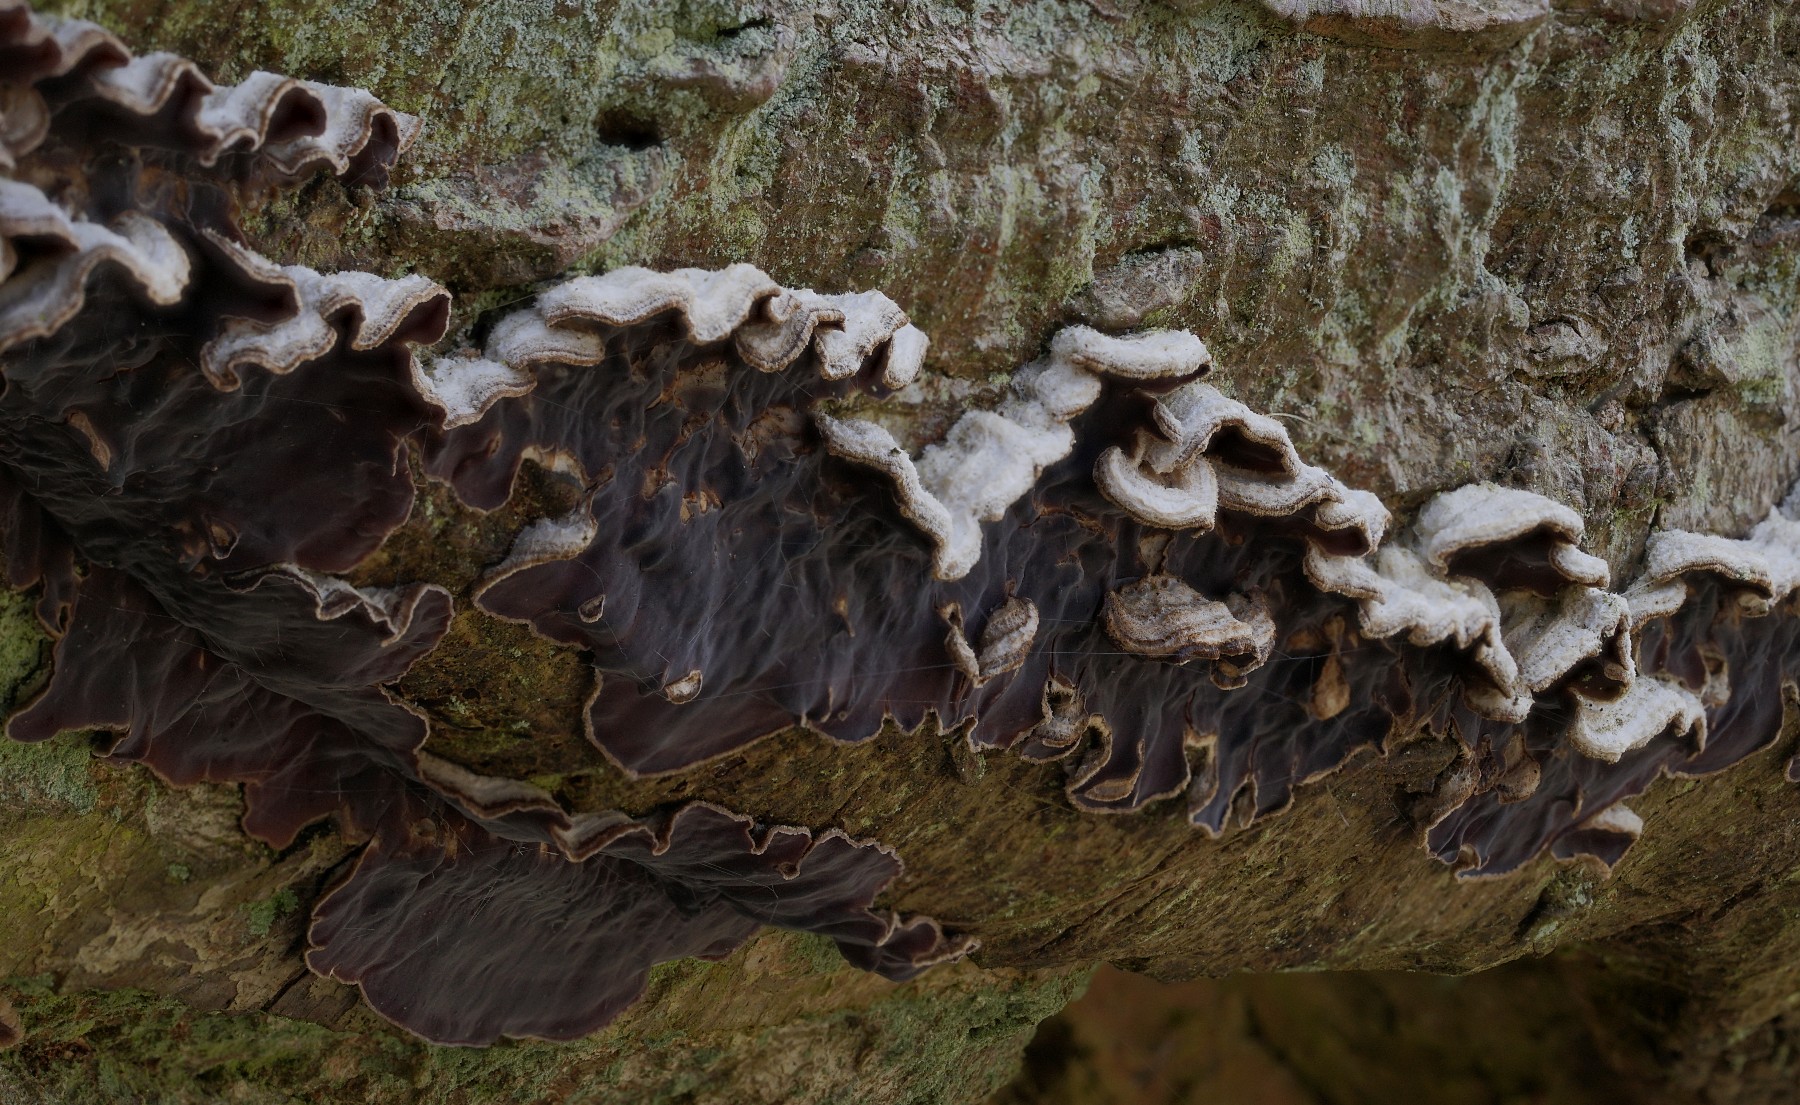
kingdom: Fungi
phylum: Basidiomycota
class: Agaricomycetes
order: Agaricales
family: Cyphellaceae
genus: Chondrostereum
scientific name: Chondrostereum purpureum
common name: purpurlædersvamp
